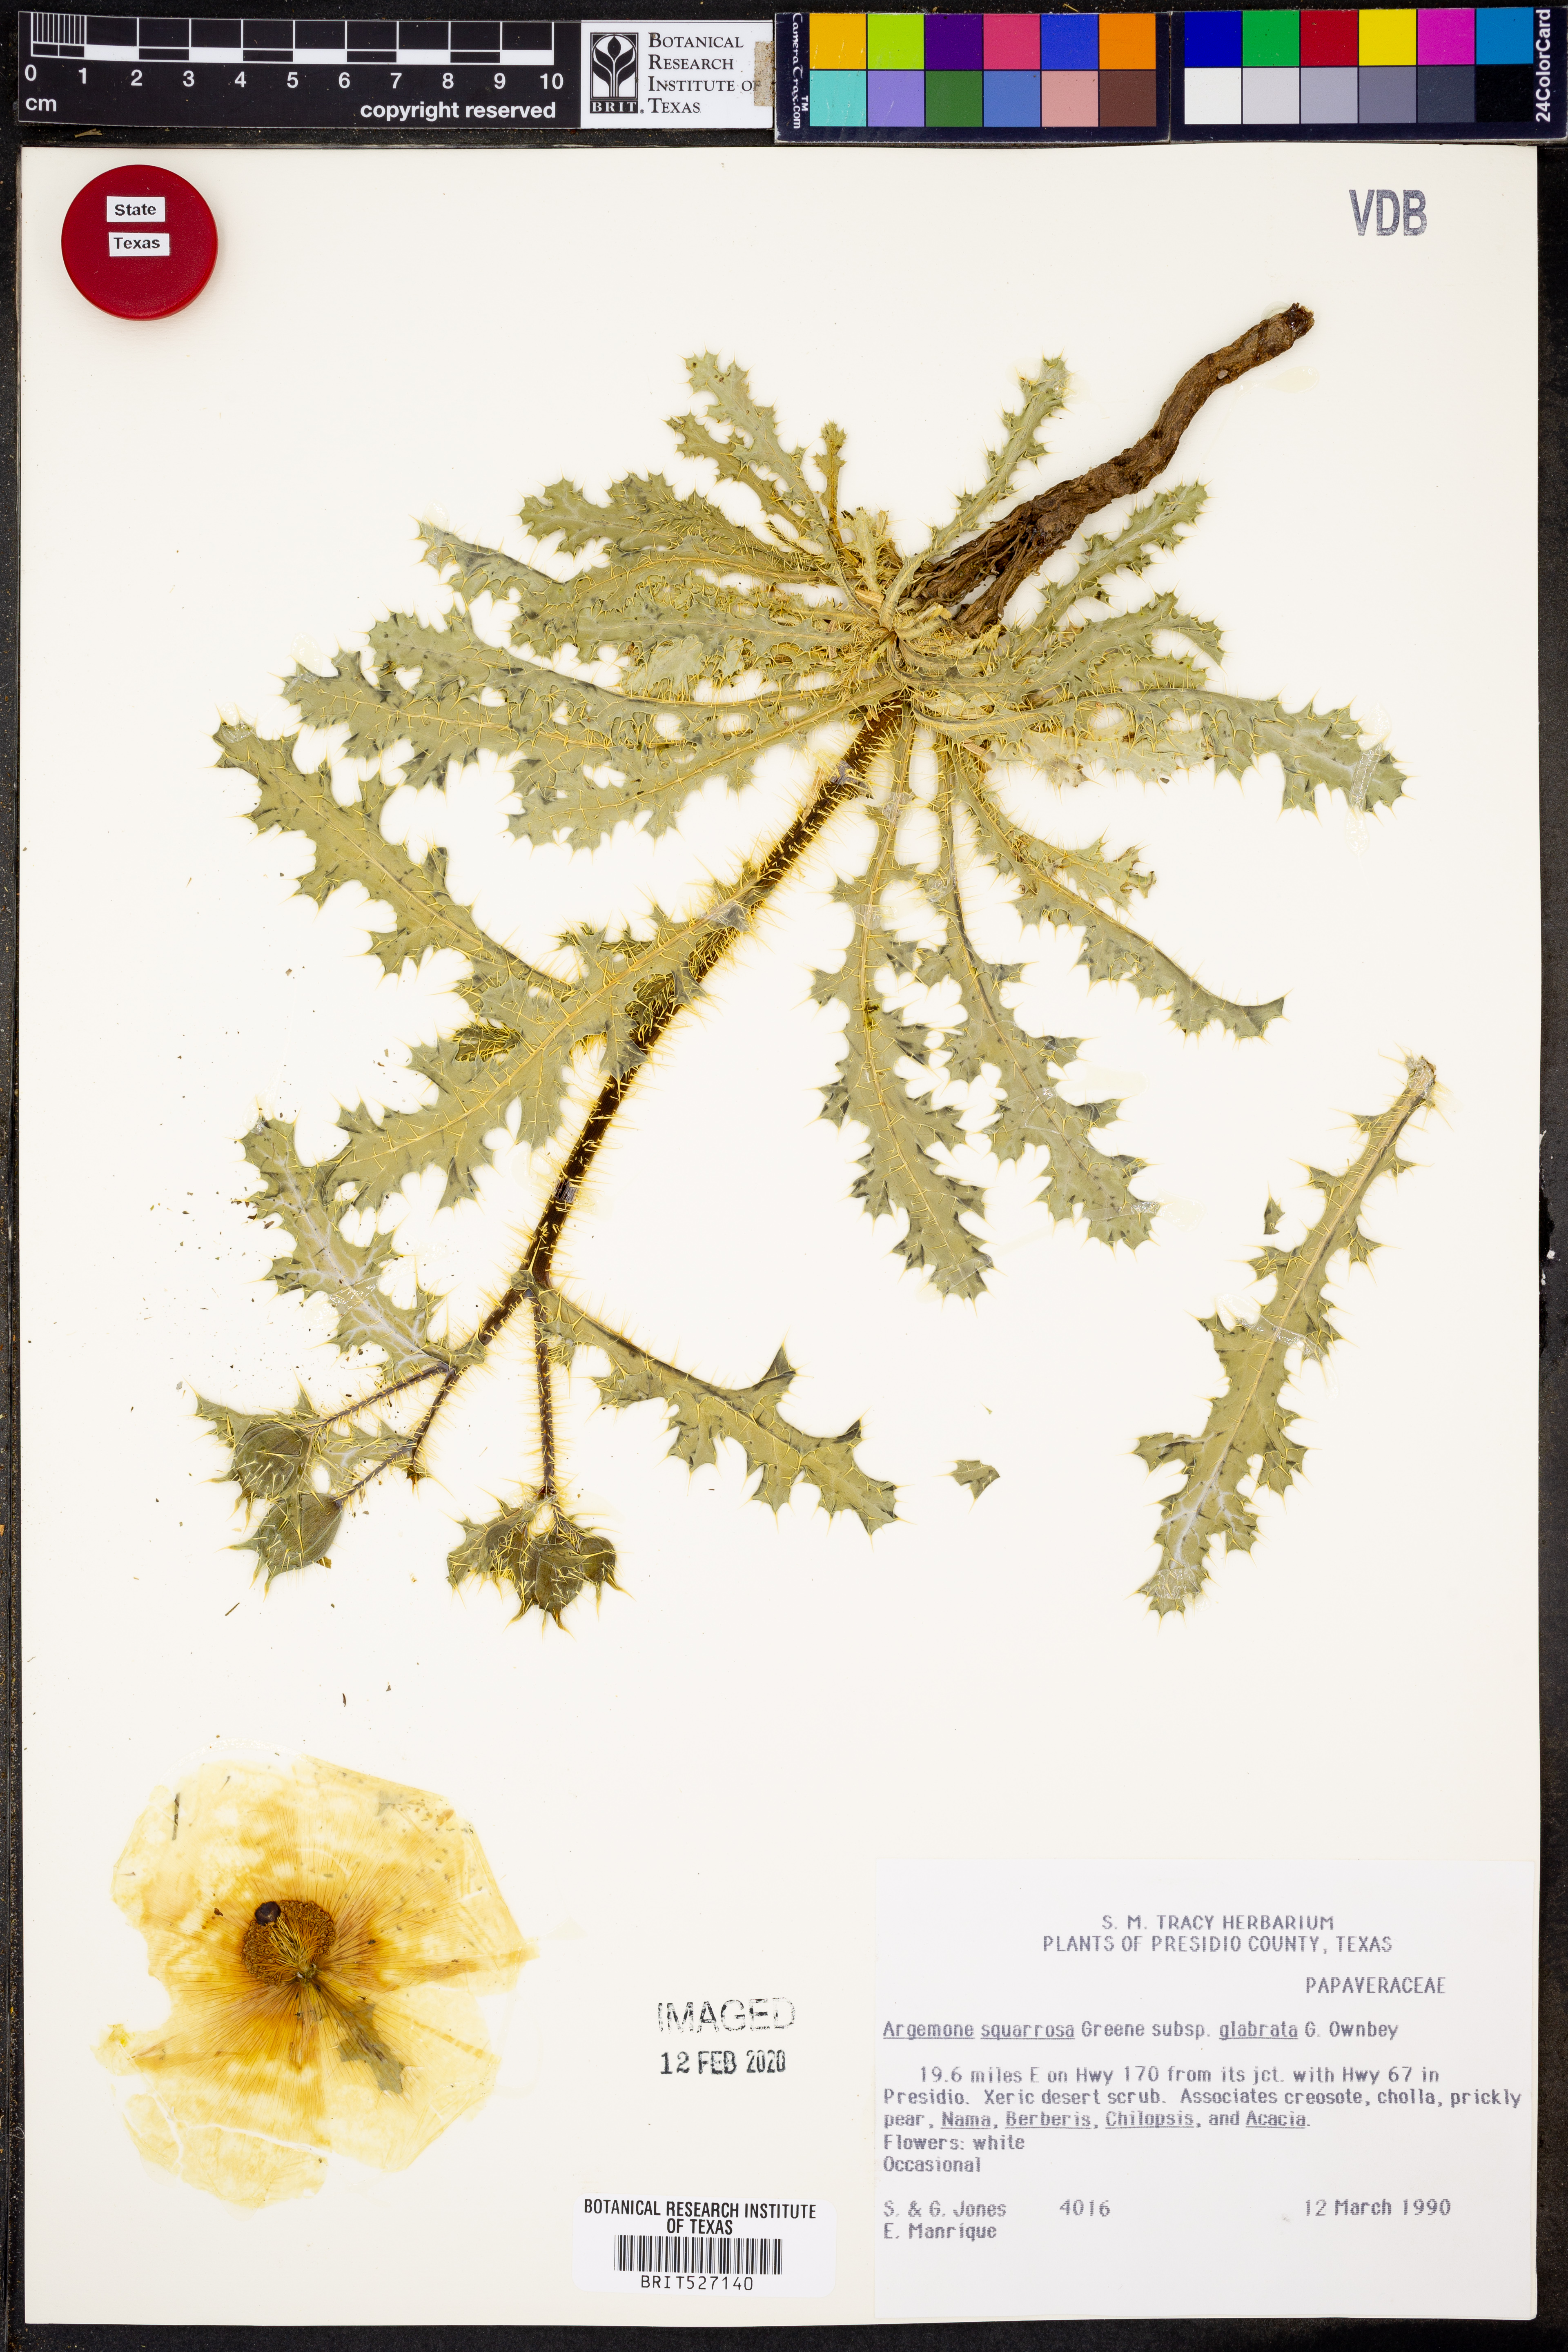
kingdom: Plantae
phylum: Tracheophyta
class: Magnoliopsida
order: Ranunculales
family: Papaveraceae
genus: Argemone
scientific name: Argemone squarrosa
